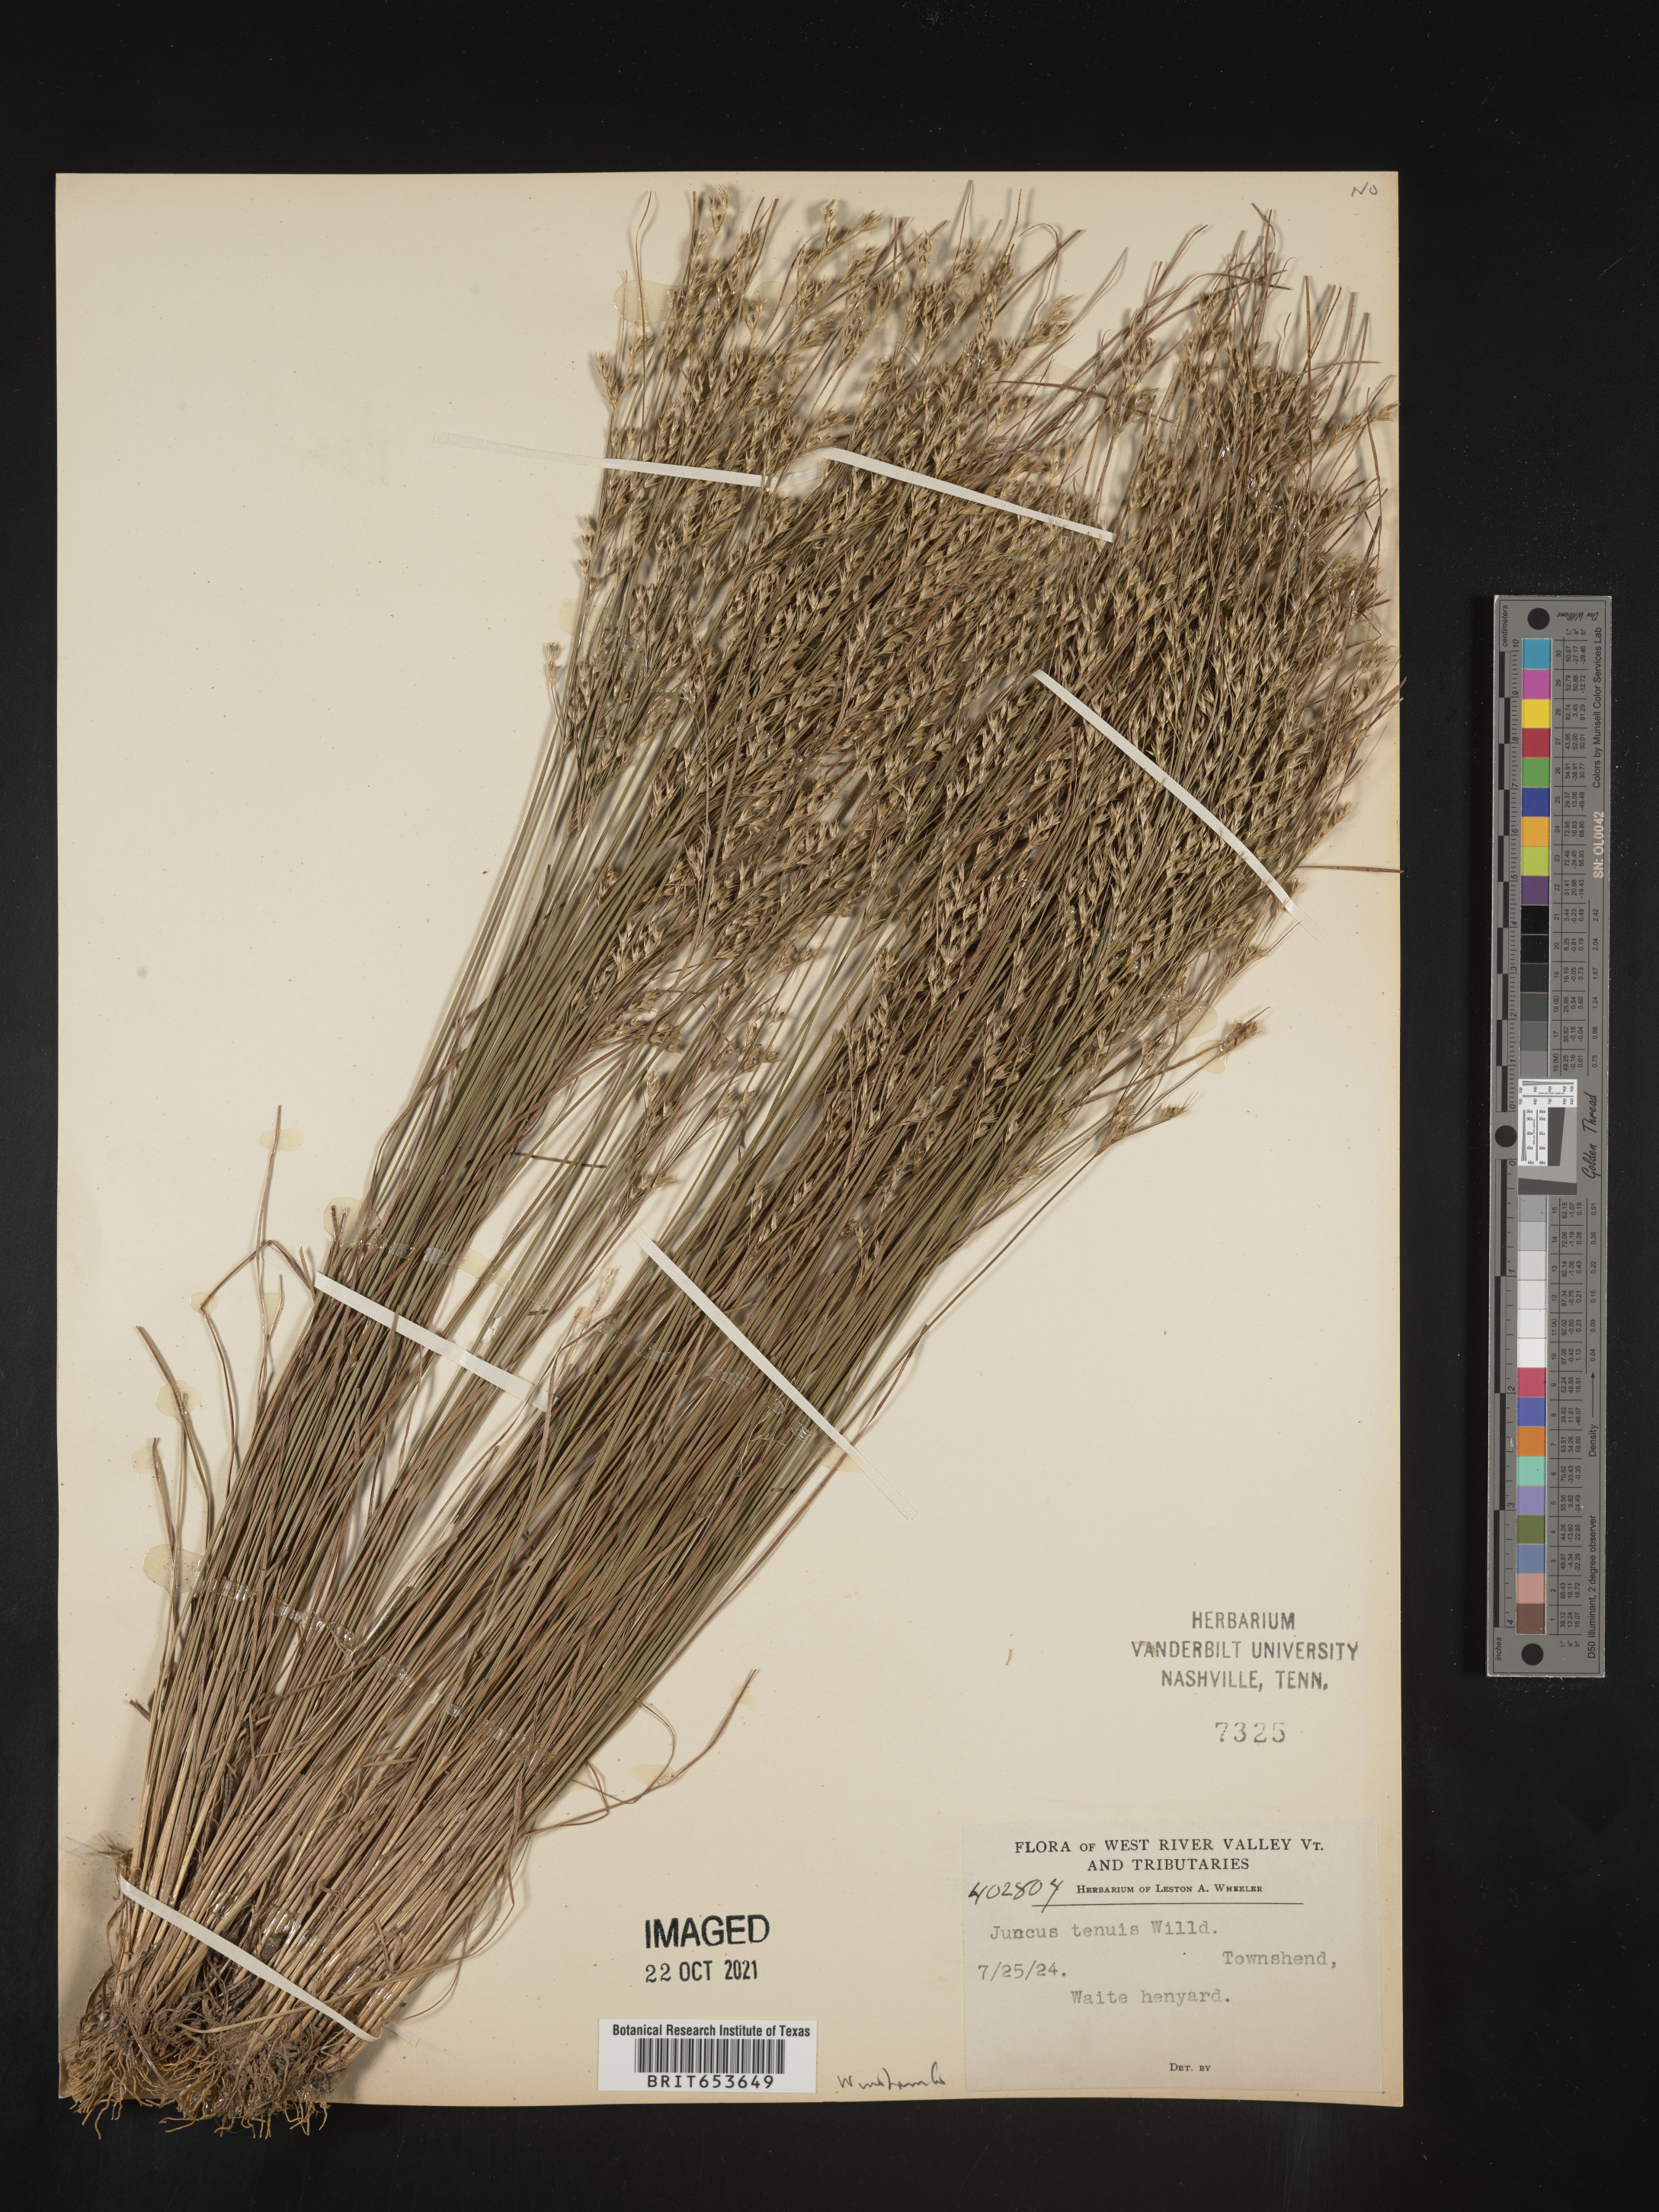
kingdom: Plantae
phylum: Tracheophyta
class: Liliopsida
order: Poales
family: Juncaceae
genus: Juncus
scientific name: Juncus tenuis
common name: Slender rush
